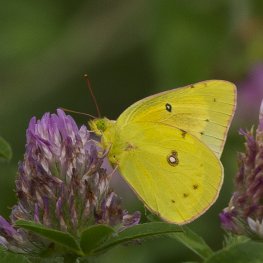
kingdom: Animalia
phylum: Arthropoda
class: Insecta
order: Lepidoptera
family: Pieridae
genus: Colias
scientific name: Colias philodice
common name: Clouded Sulphur
